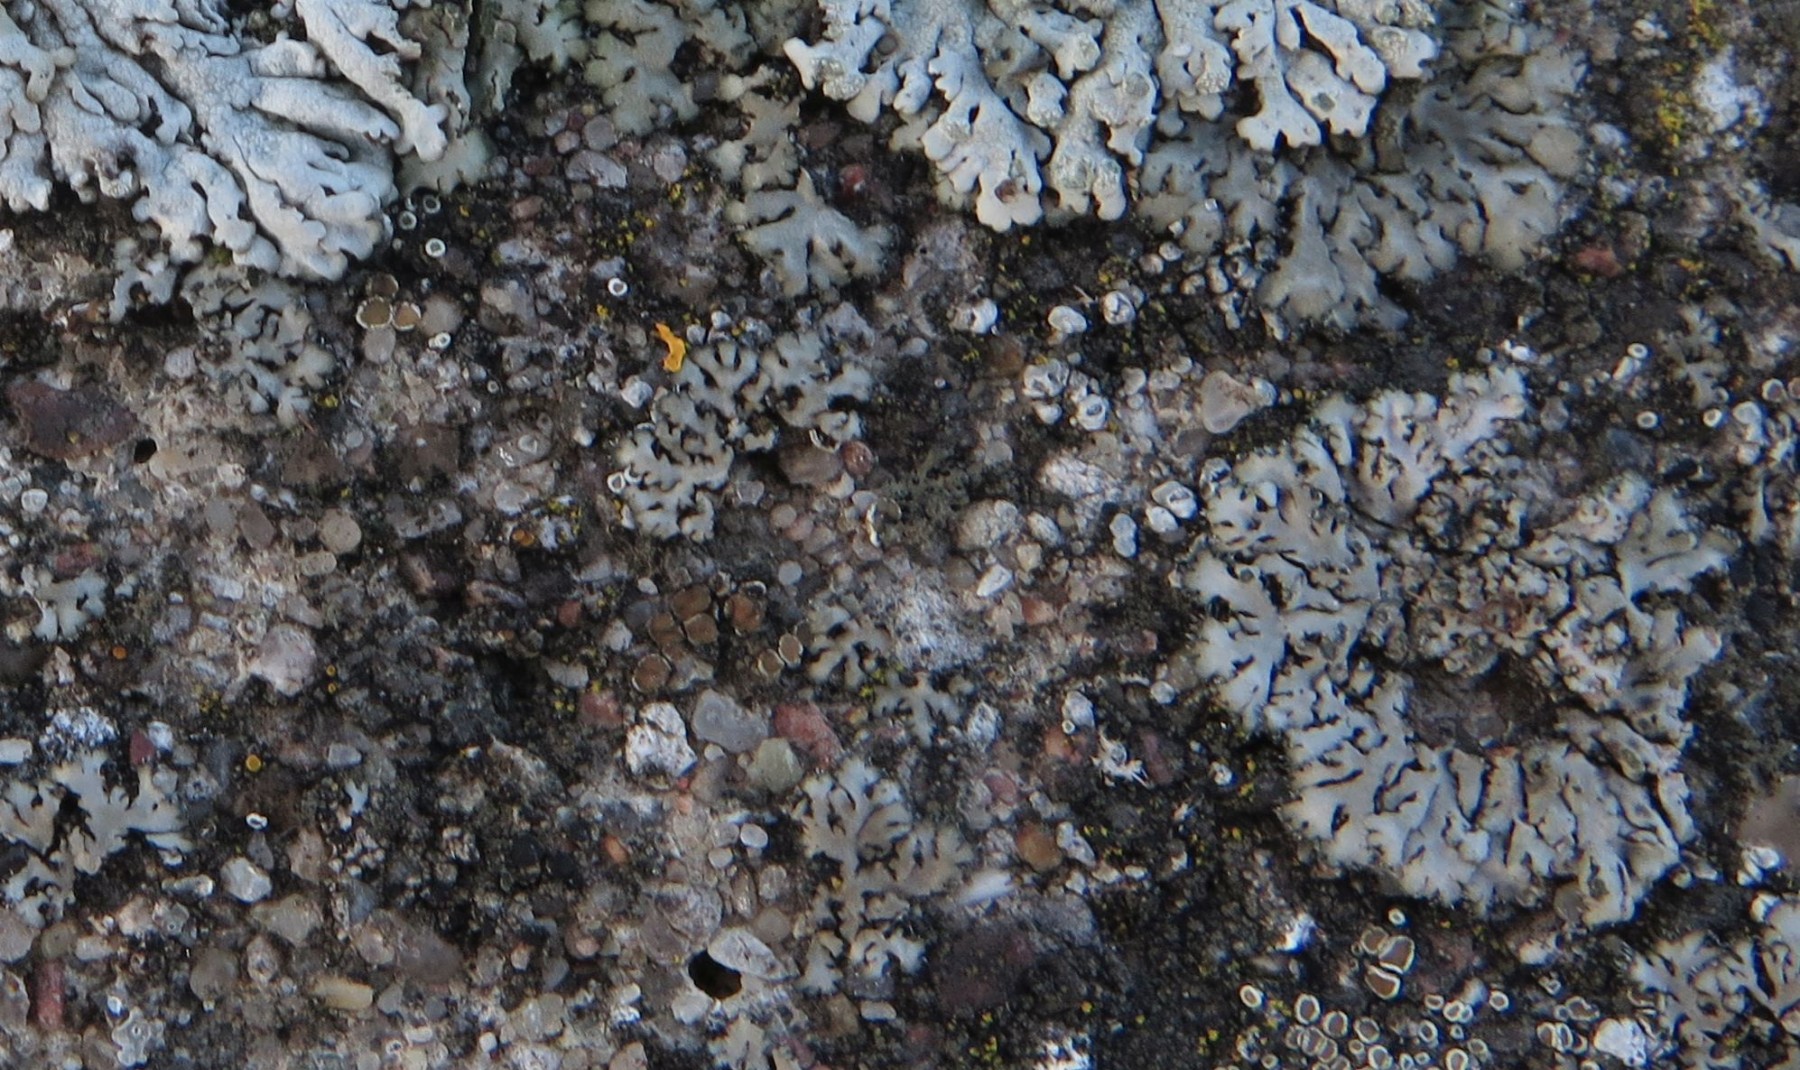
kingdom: Fungi
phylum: Ascomycota
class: Lecanoromycetes
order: Caliciales
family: Physciaceae
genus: Phaeophyscia
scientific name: Phaeophyscia orbicularis
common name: grågrøn rosetlav
